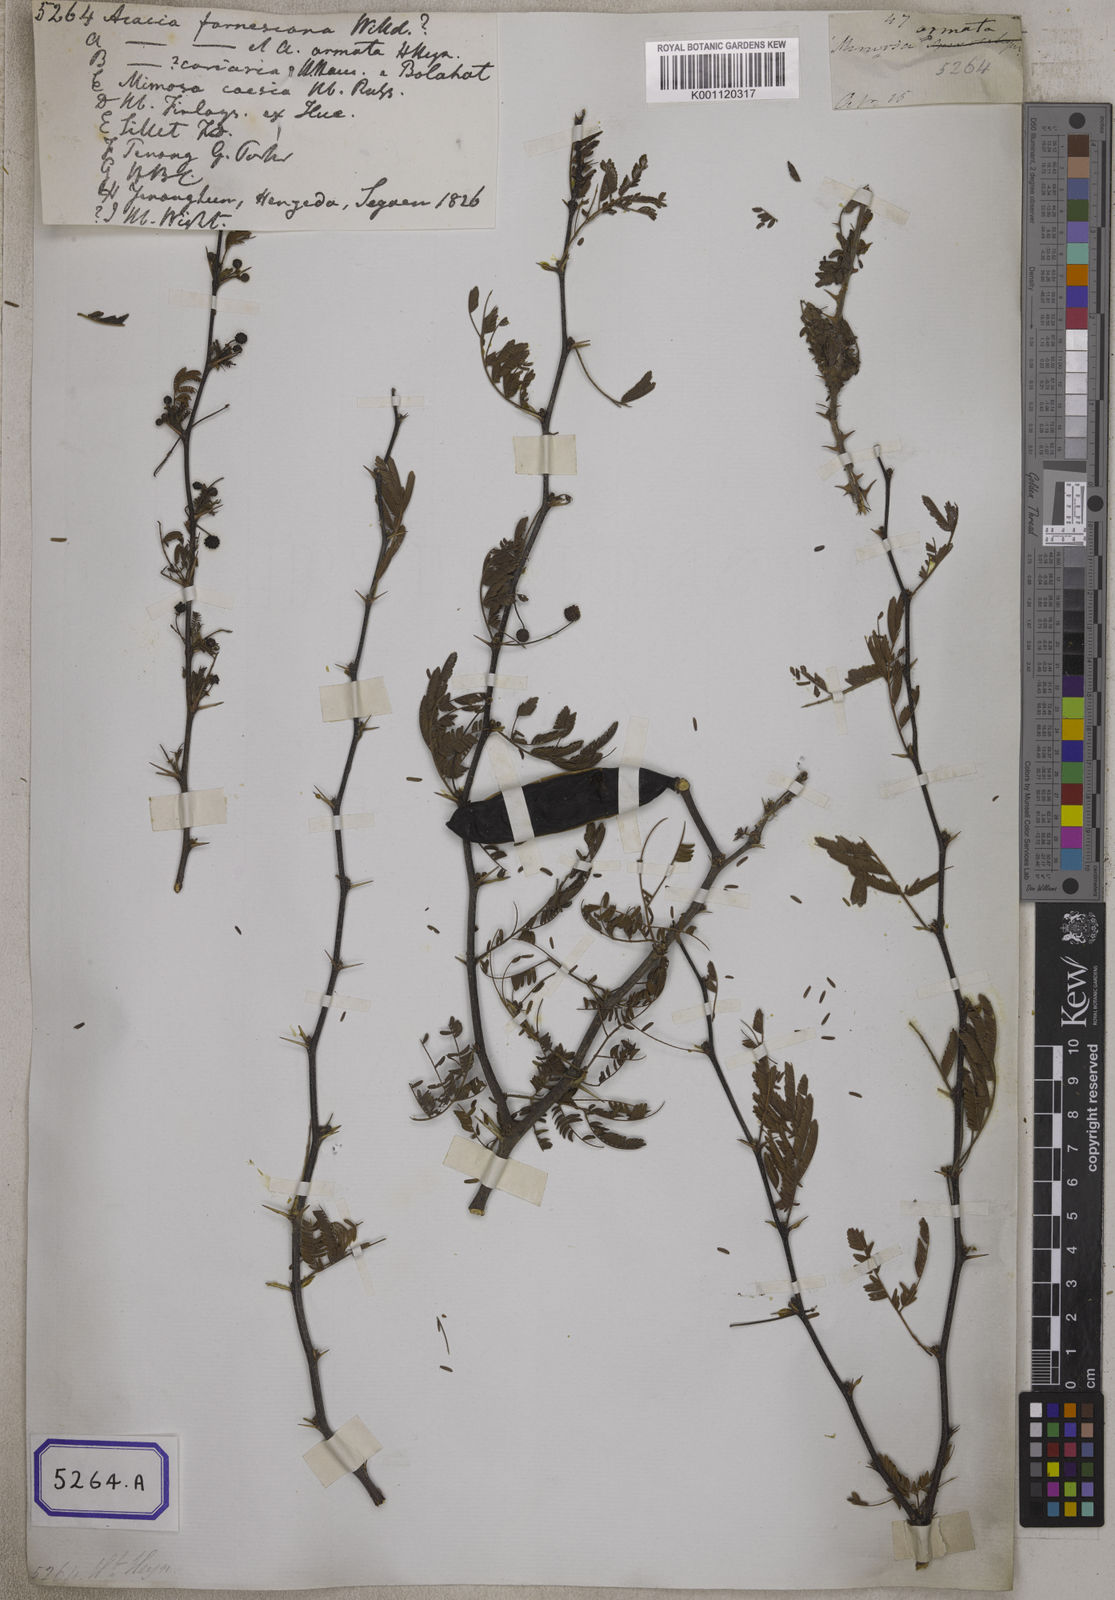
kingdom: Plantae
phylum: Tracheophyta
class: Magnoliopsida
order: Fabales
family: Fabaceae
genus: Vachellia
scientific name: Vachellia farnesiana
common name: Sweet acacia
